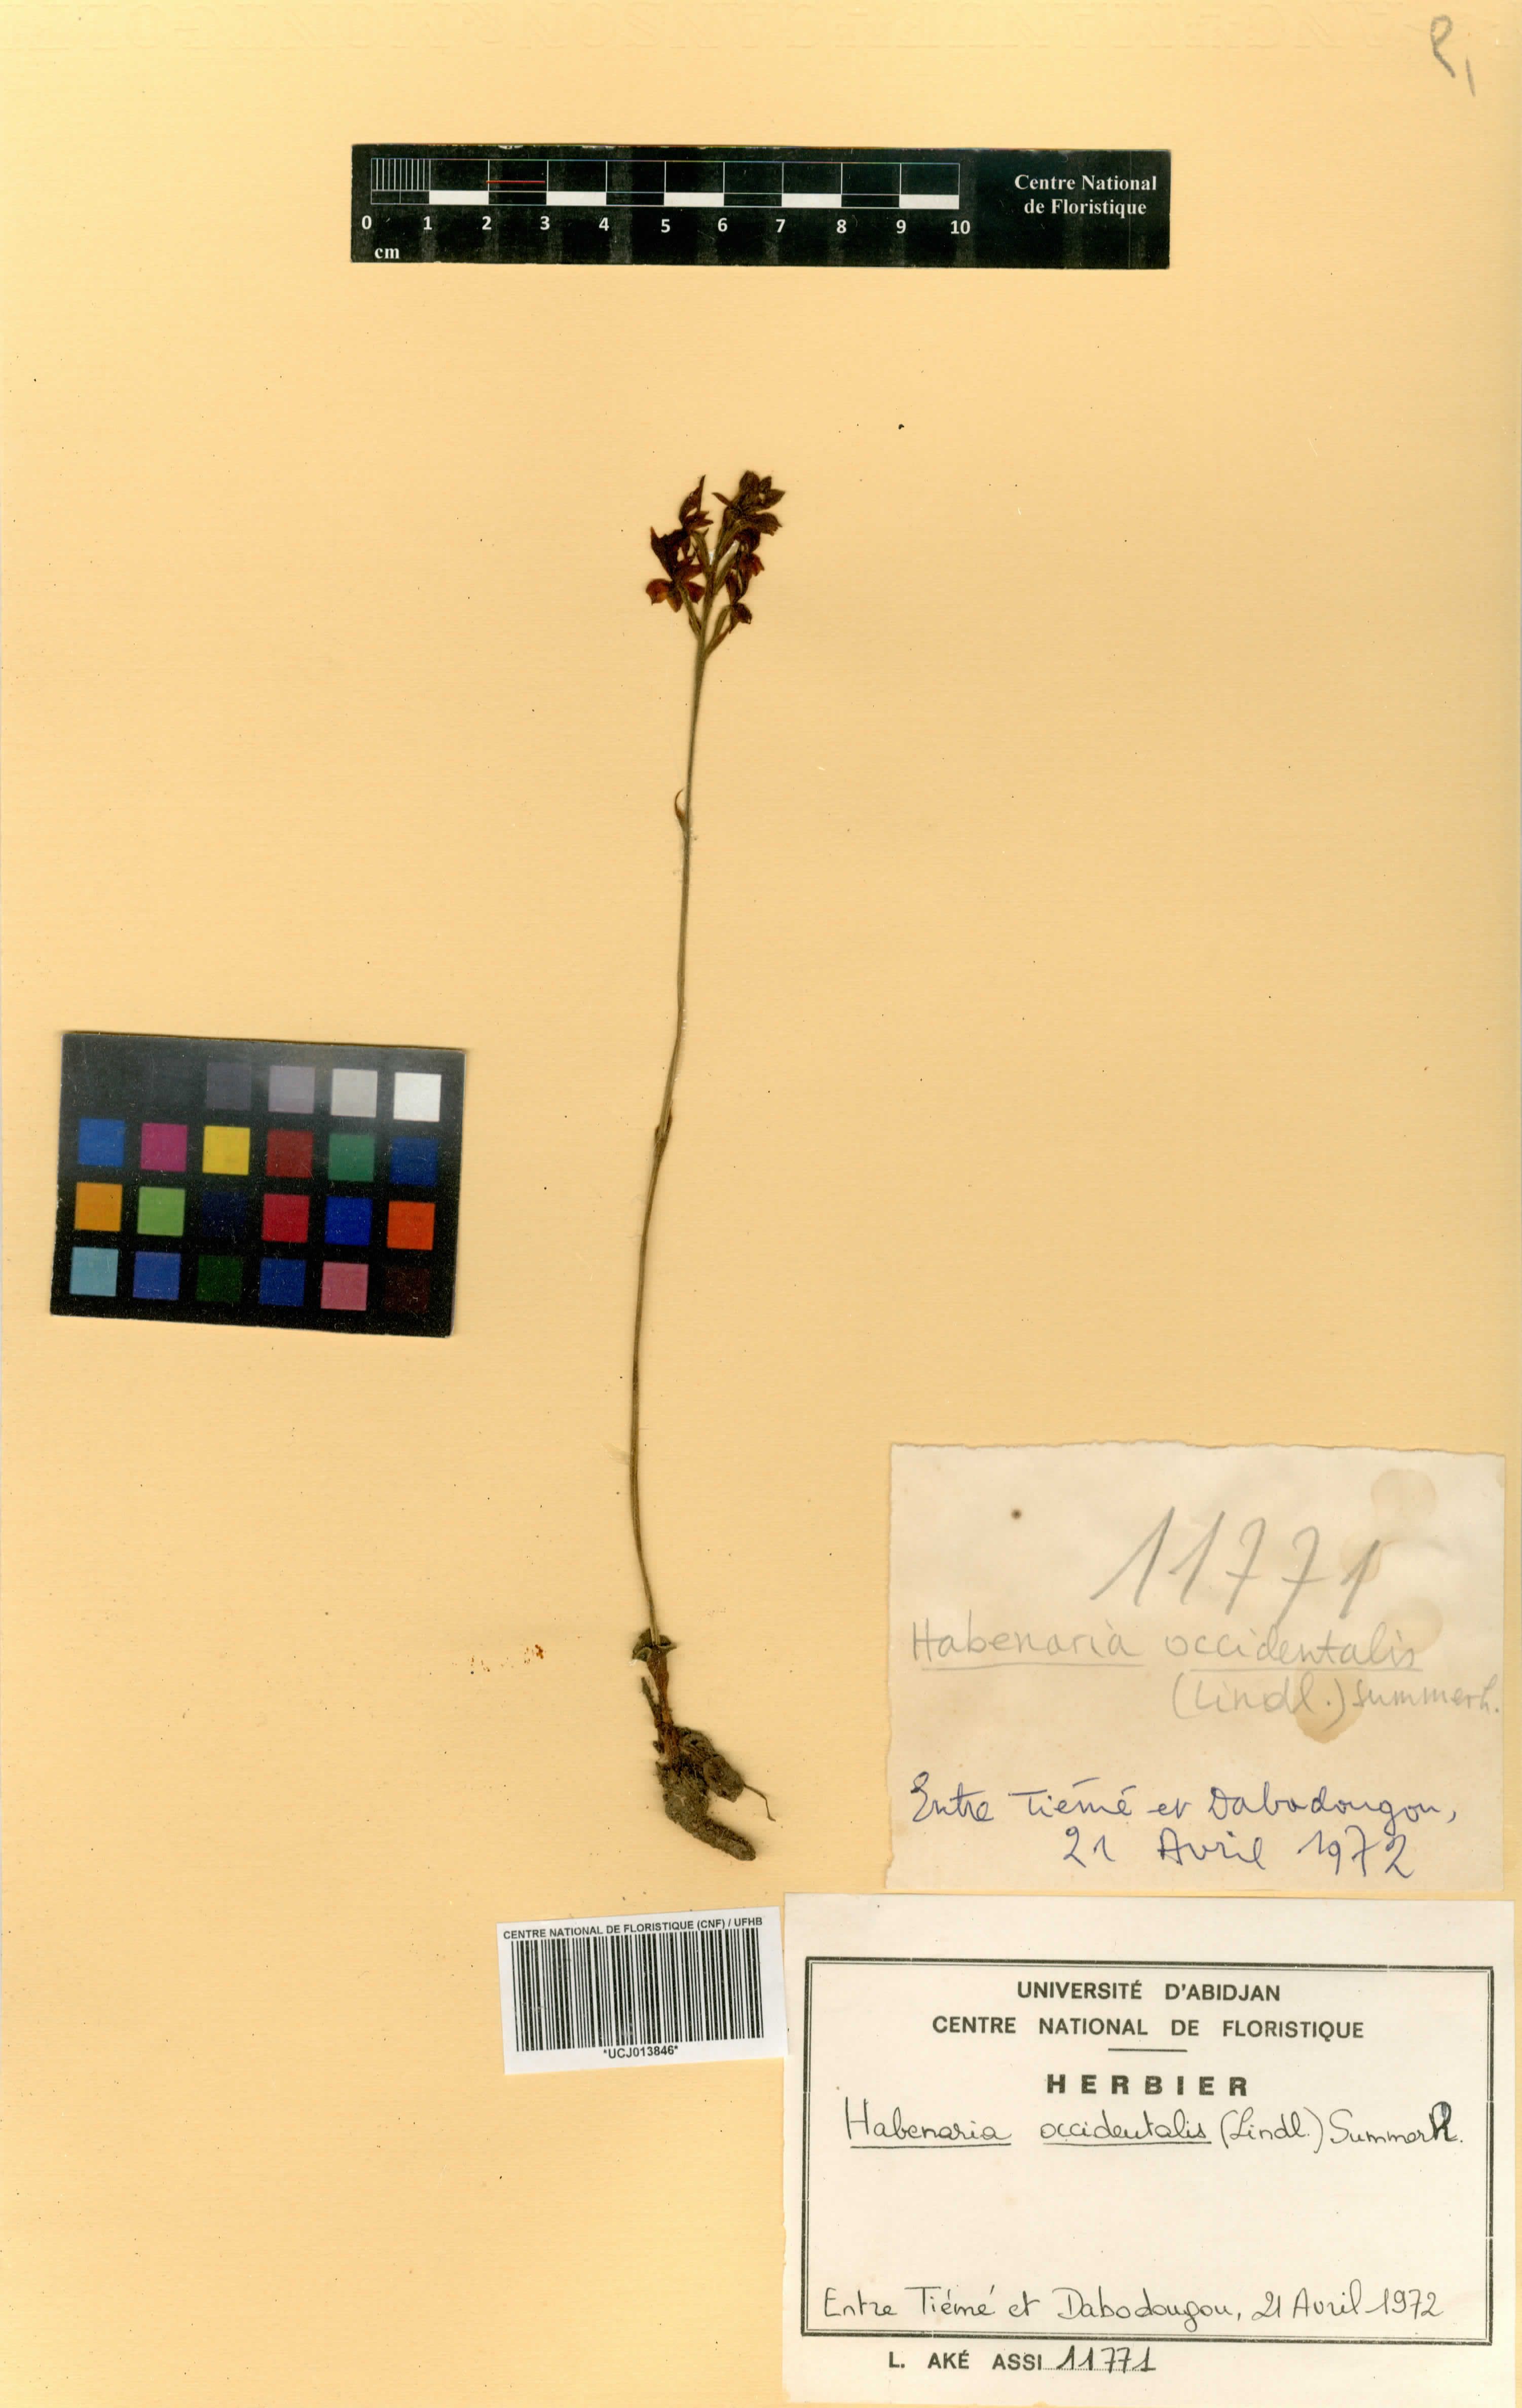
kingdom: Plantae
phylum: Tracheophyta
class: Liliopsida
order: Asparagales
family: Orchidaceae
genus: Habenaria
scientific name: Habenaria occidentalis
